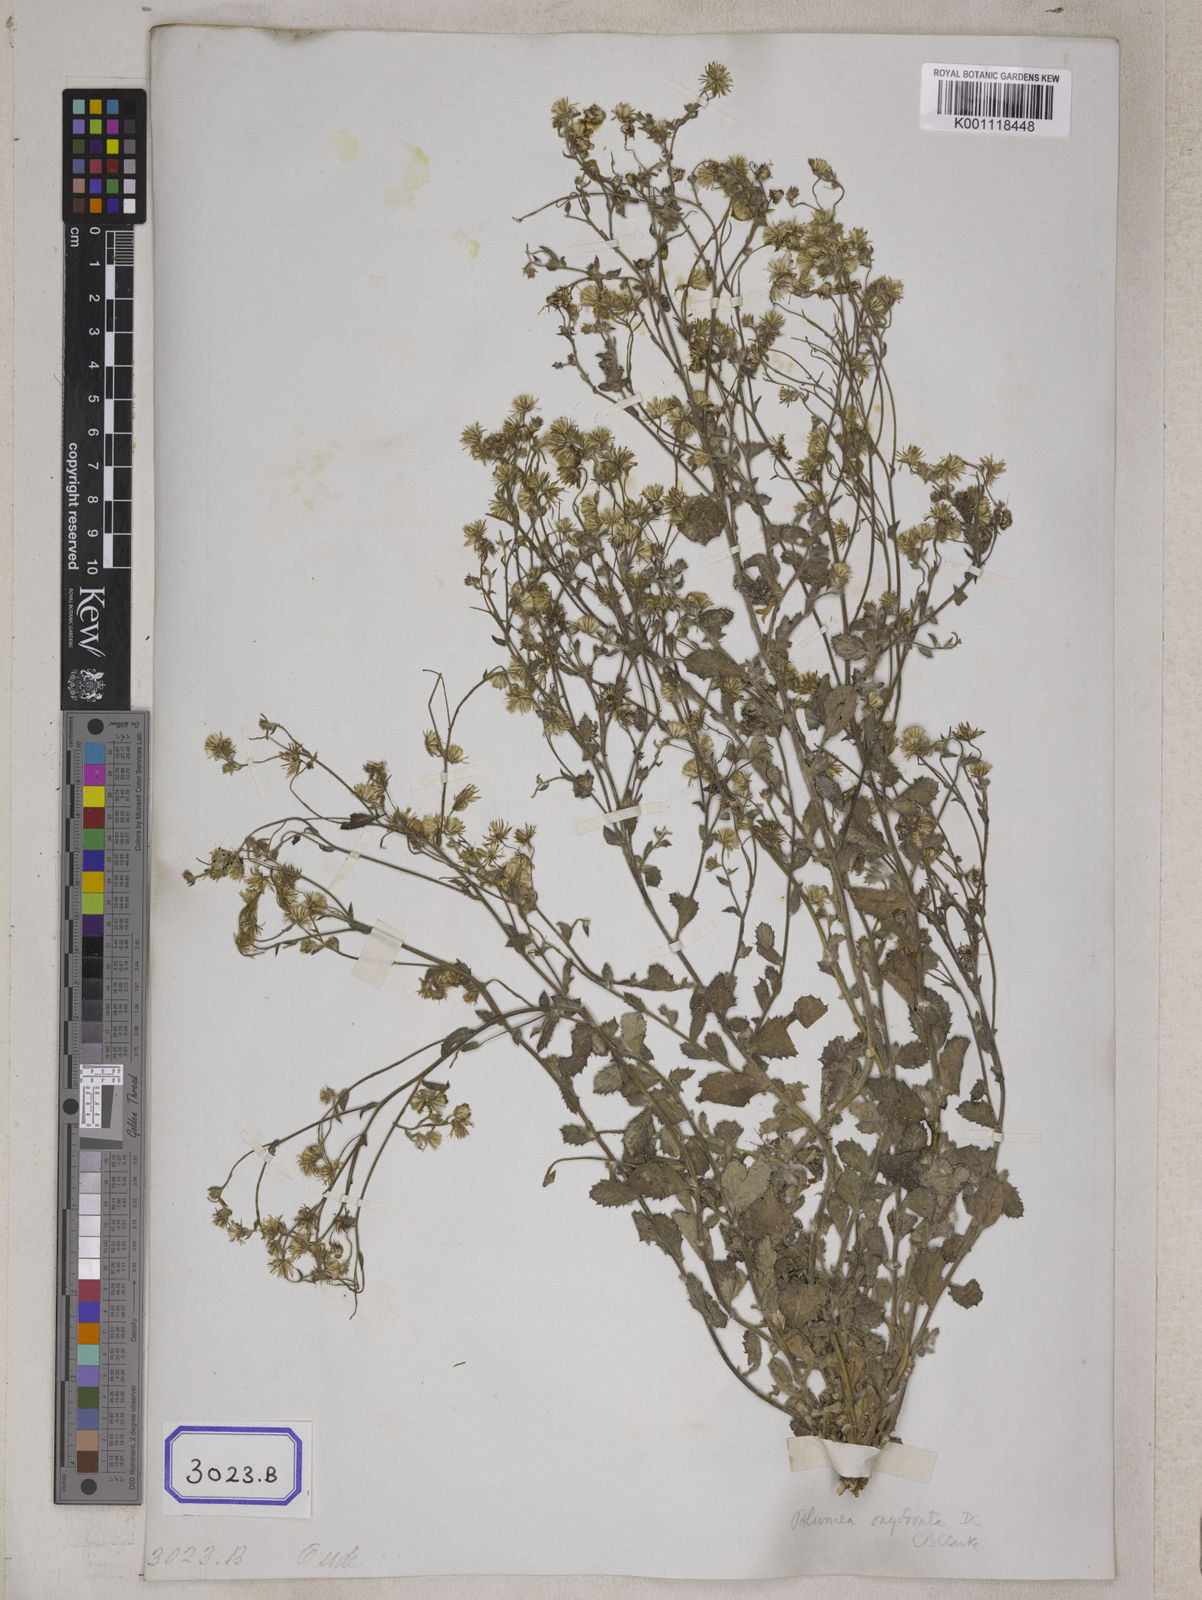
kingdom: Plantae
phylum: Tracheophyta
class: Magnoliopsida
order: Asterales
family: Asteraceae
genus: Blumea
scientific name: Blumea oxyodonta
